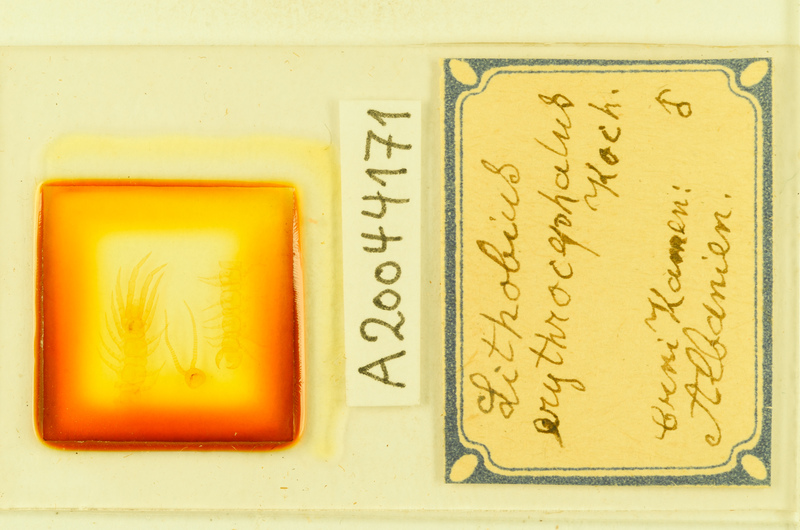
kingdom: Animalia
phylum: Arthropoda
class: Chilopoda
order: Lithobiomorpha
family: Lithobiidae
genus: Lithobius
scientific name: Lithobius erythrocephalus
